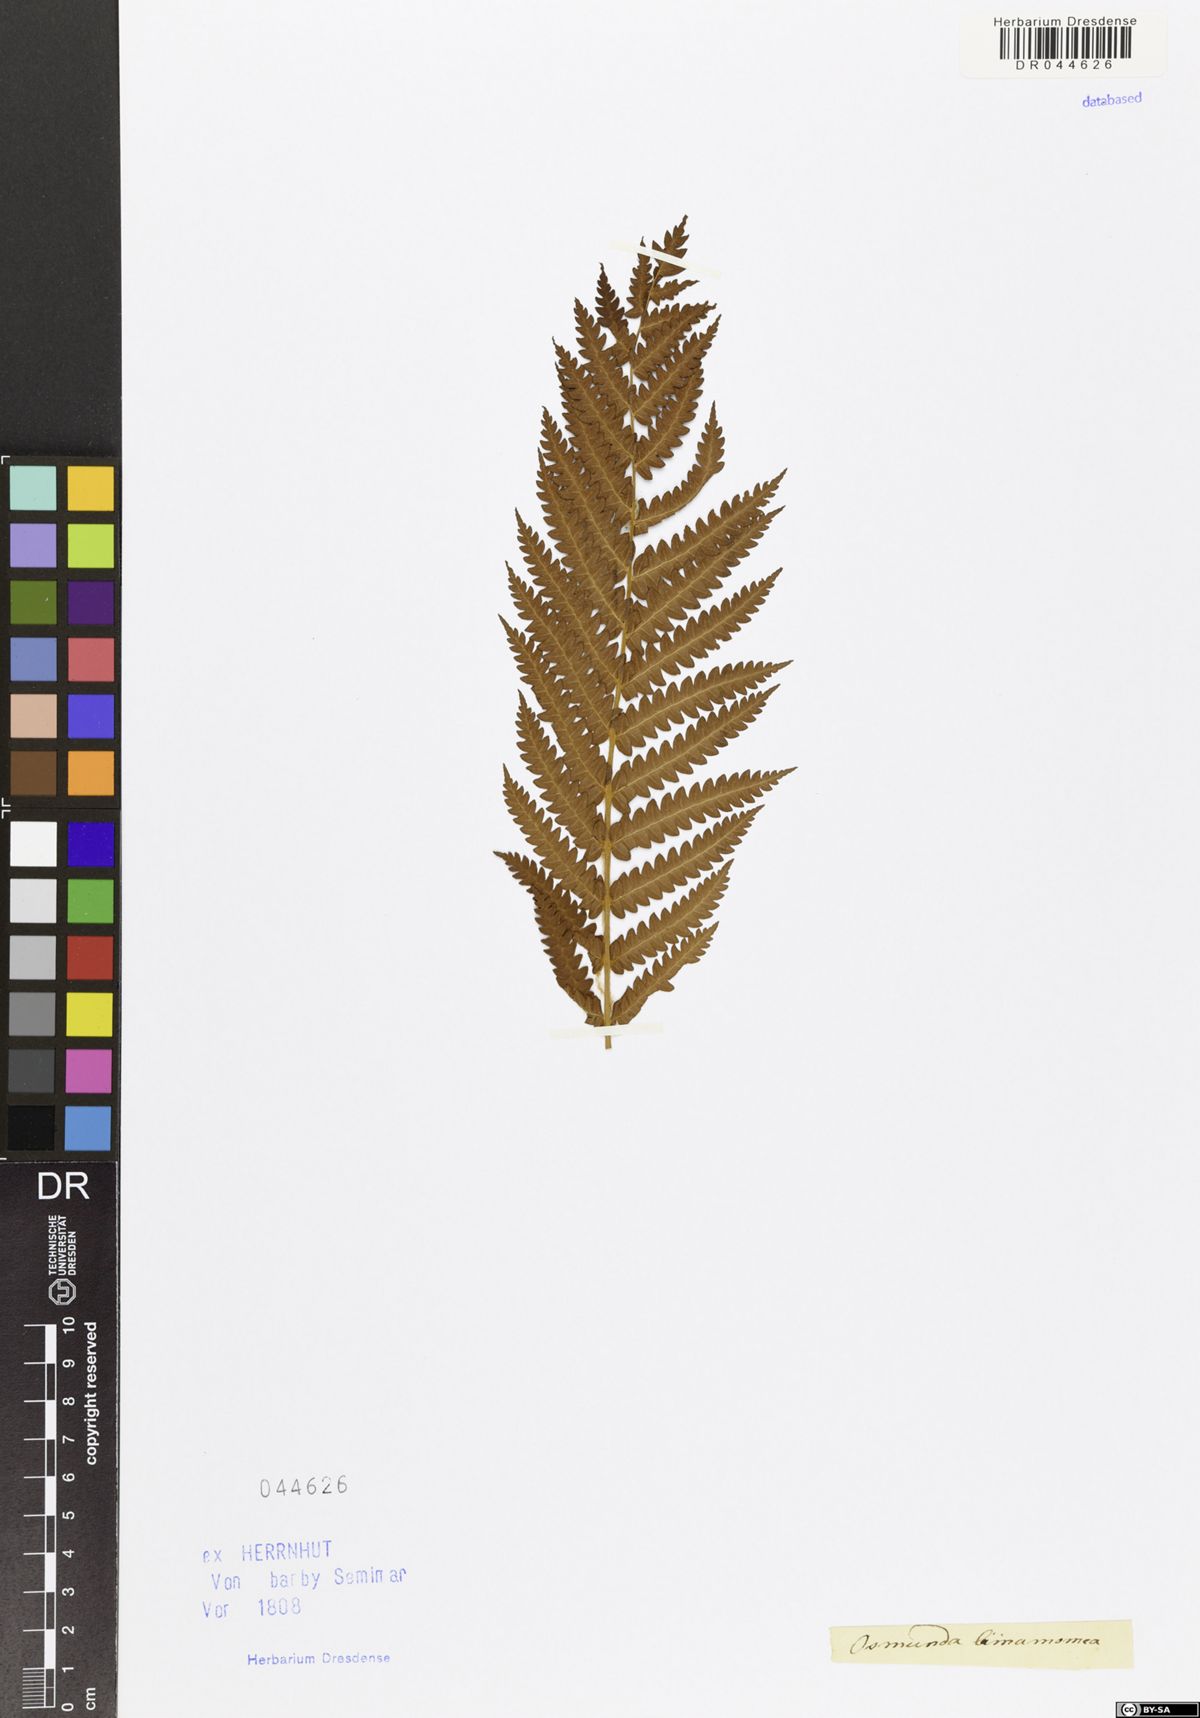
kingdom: Plantae
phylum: Tracheophyta
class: Polypodiopsida
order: Osmundales
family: Osmundaceae
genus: Osmundastrum
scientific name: Osmundastrum cinnamomeum
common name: Cinnamon fern
